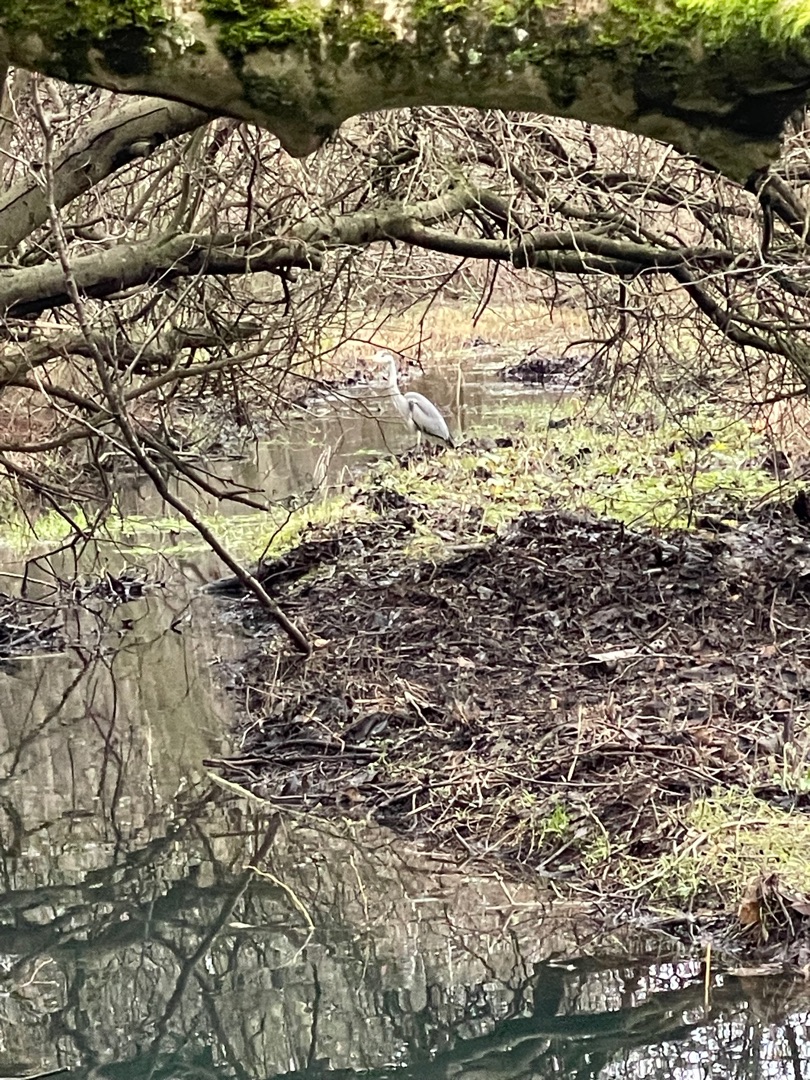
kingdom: Animalia
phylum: Chordata
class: Aves
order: Pelecaniformes
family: Ardeidae
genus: Ardea
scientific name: Ardea cinerea
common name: Fiskehejre
